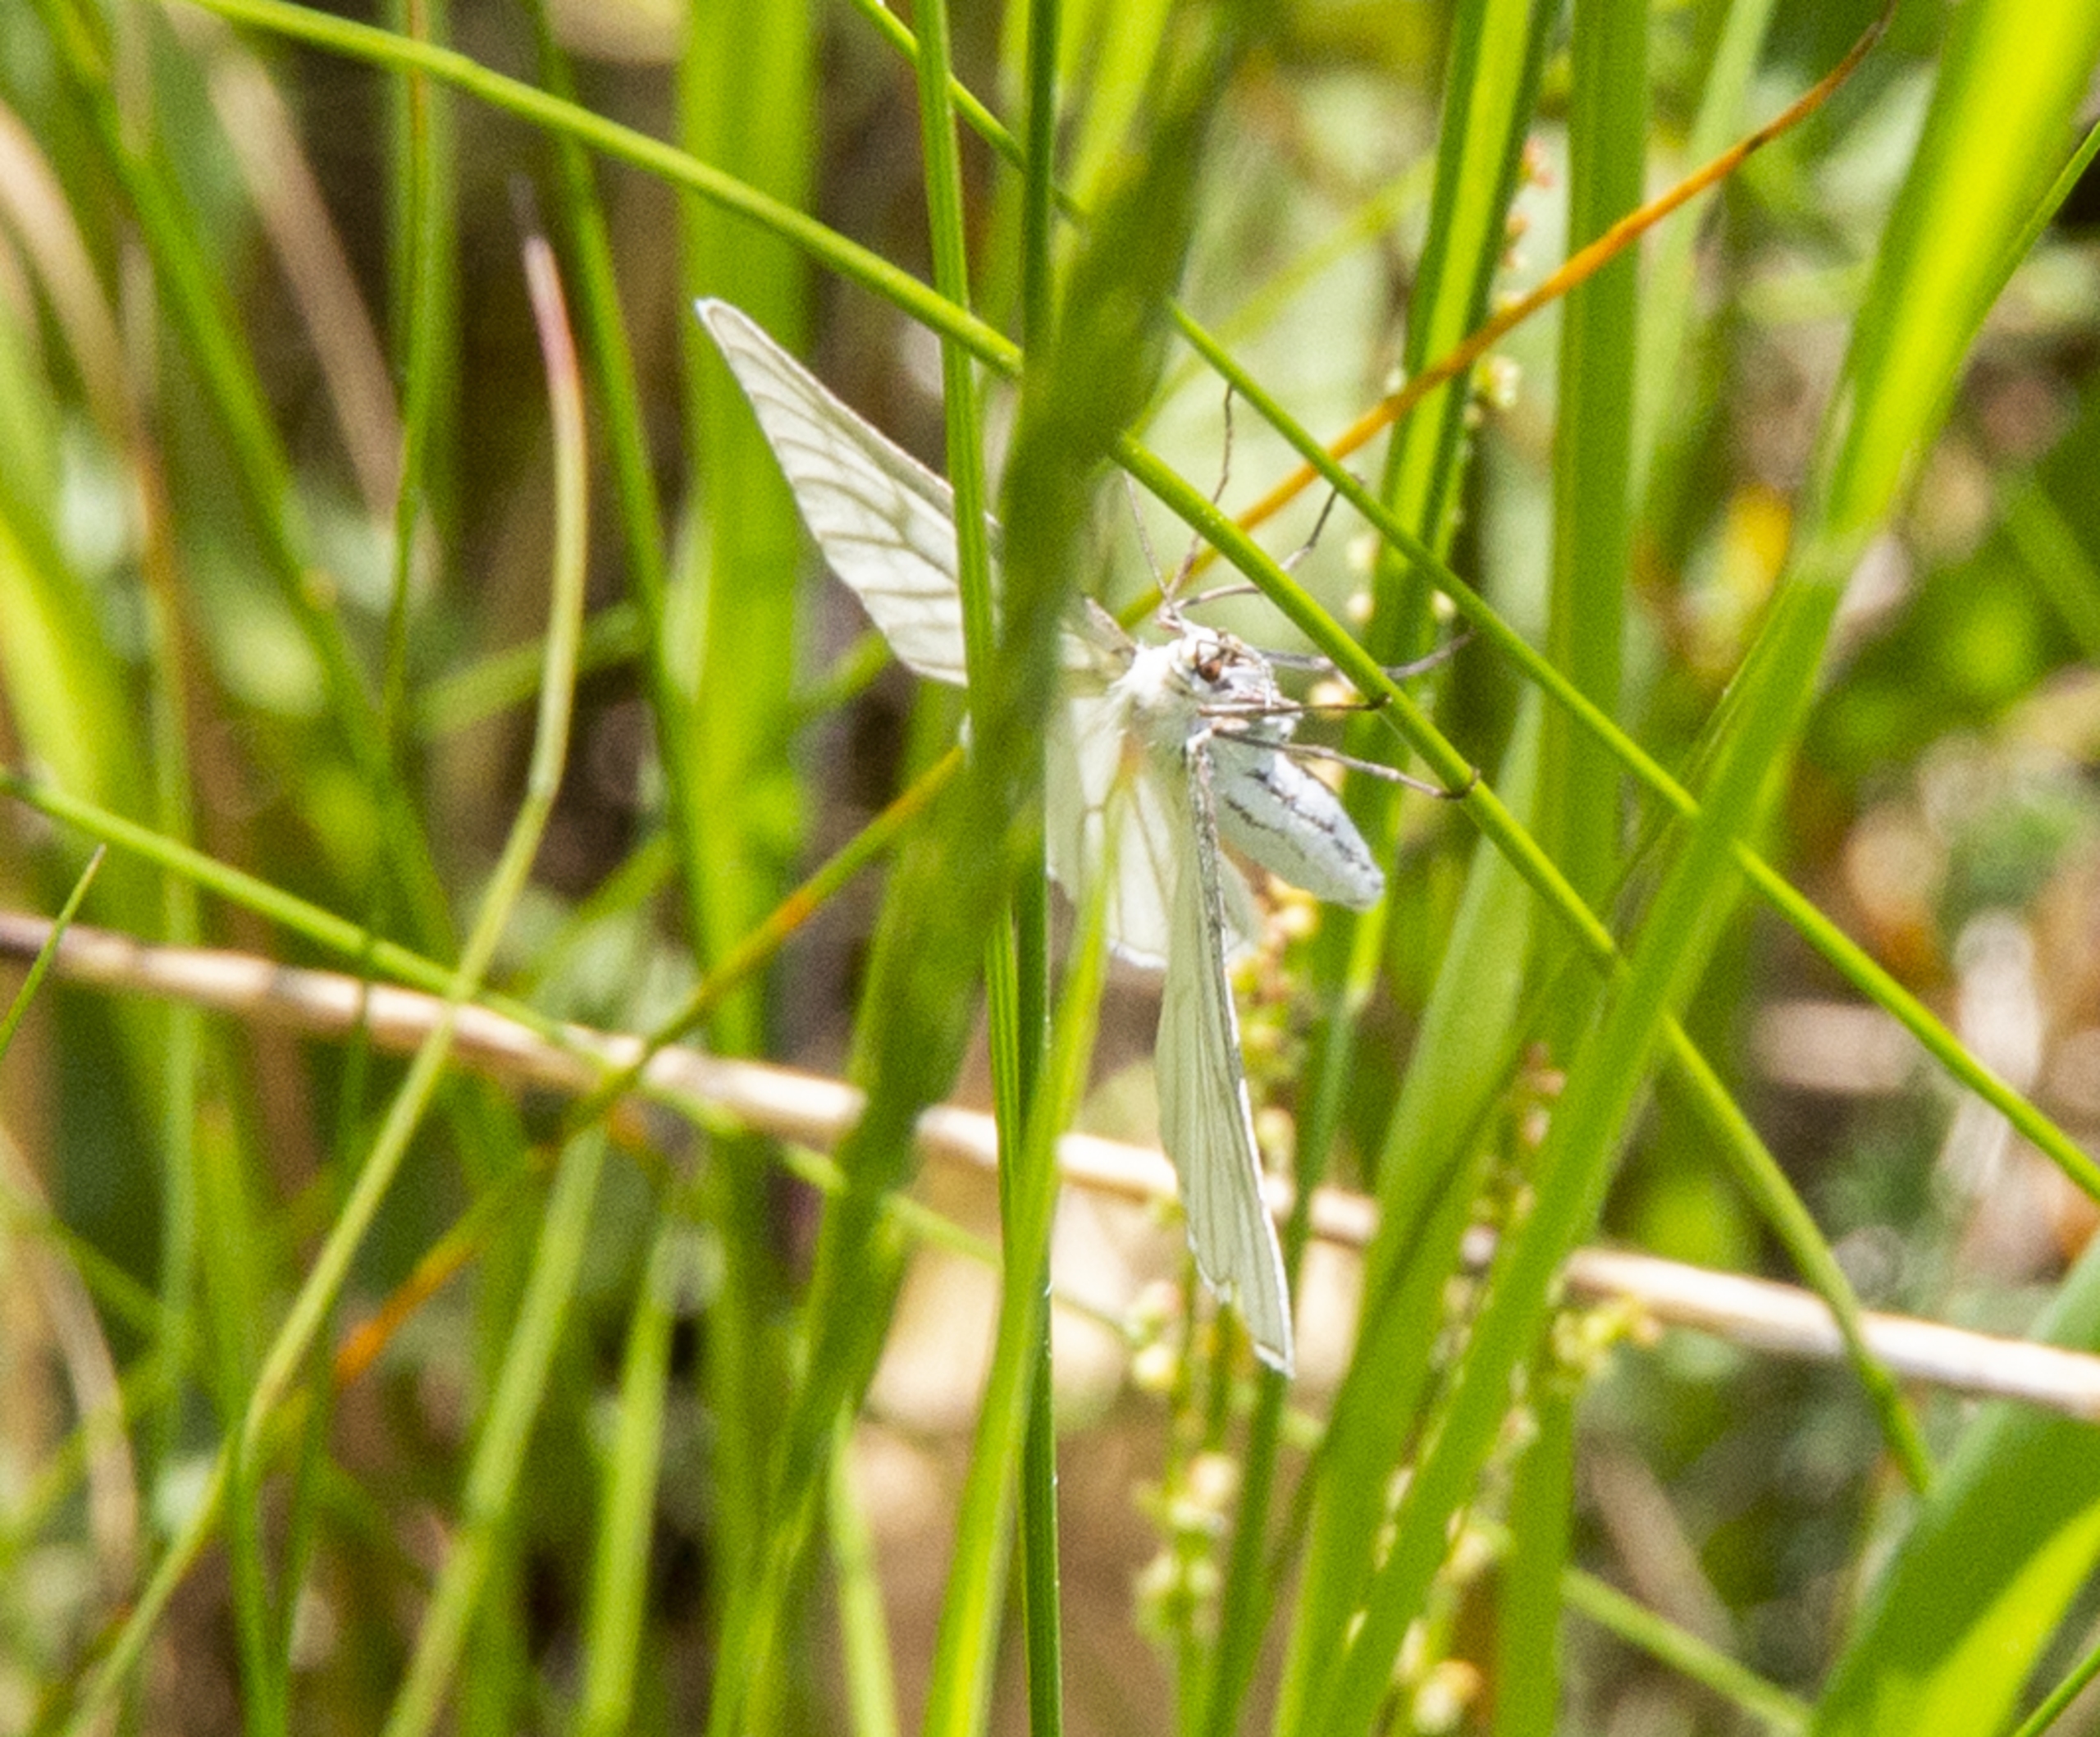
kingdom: Animalia
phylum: Arthropoda
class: Insecta
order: Lepidoptera
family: Geometridae
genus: Siona
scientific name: Siona lineata
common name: Hvidvingemåler
